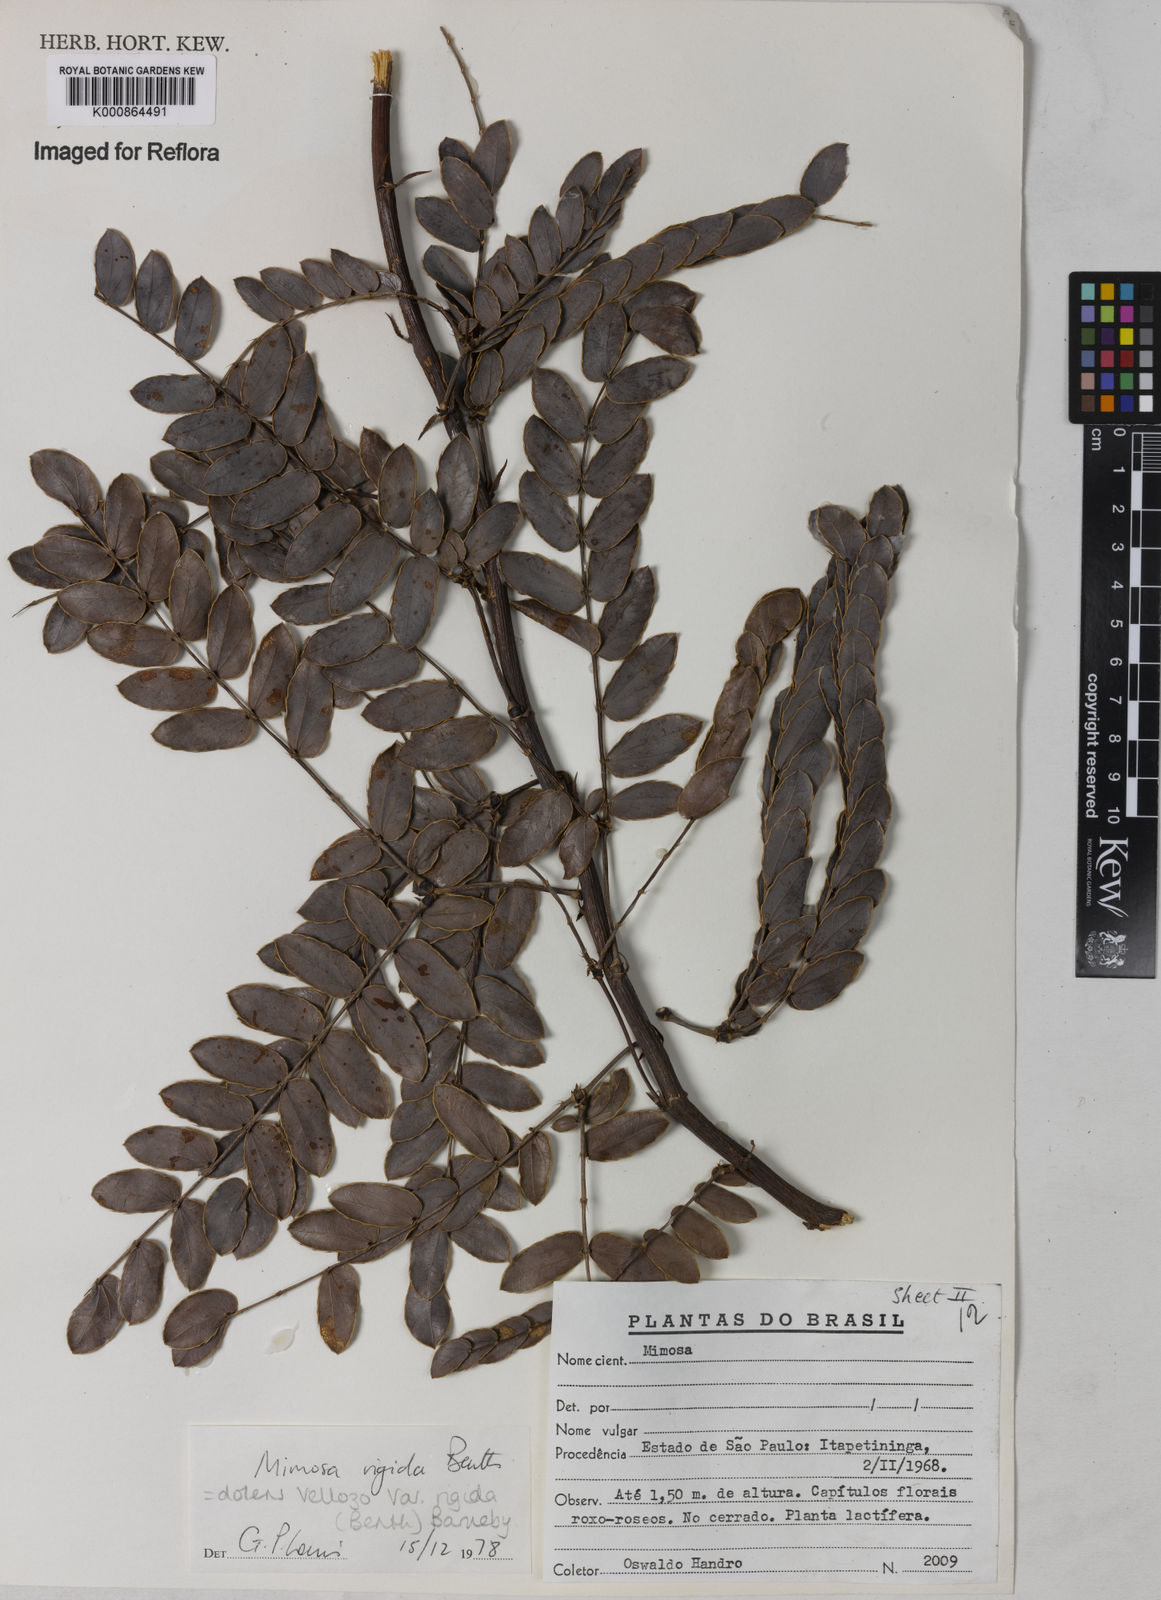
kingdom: Plantae
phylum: Tracheophyta
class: Magnoliopsida
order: Fabales
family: Fabaceae
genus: Mimosa
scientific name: Mimosa dolens
